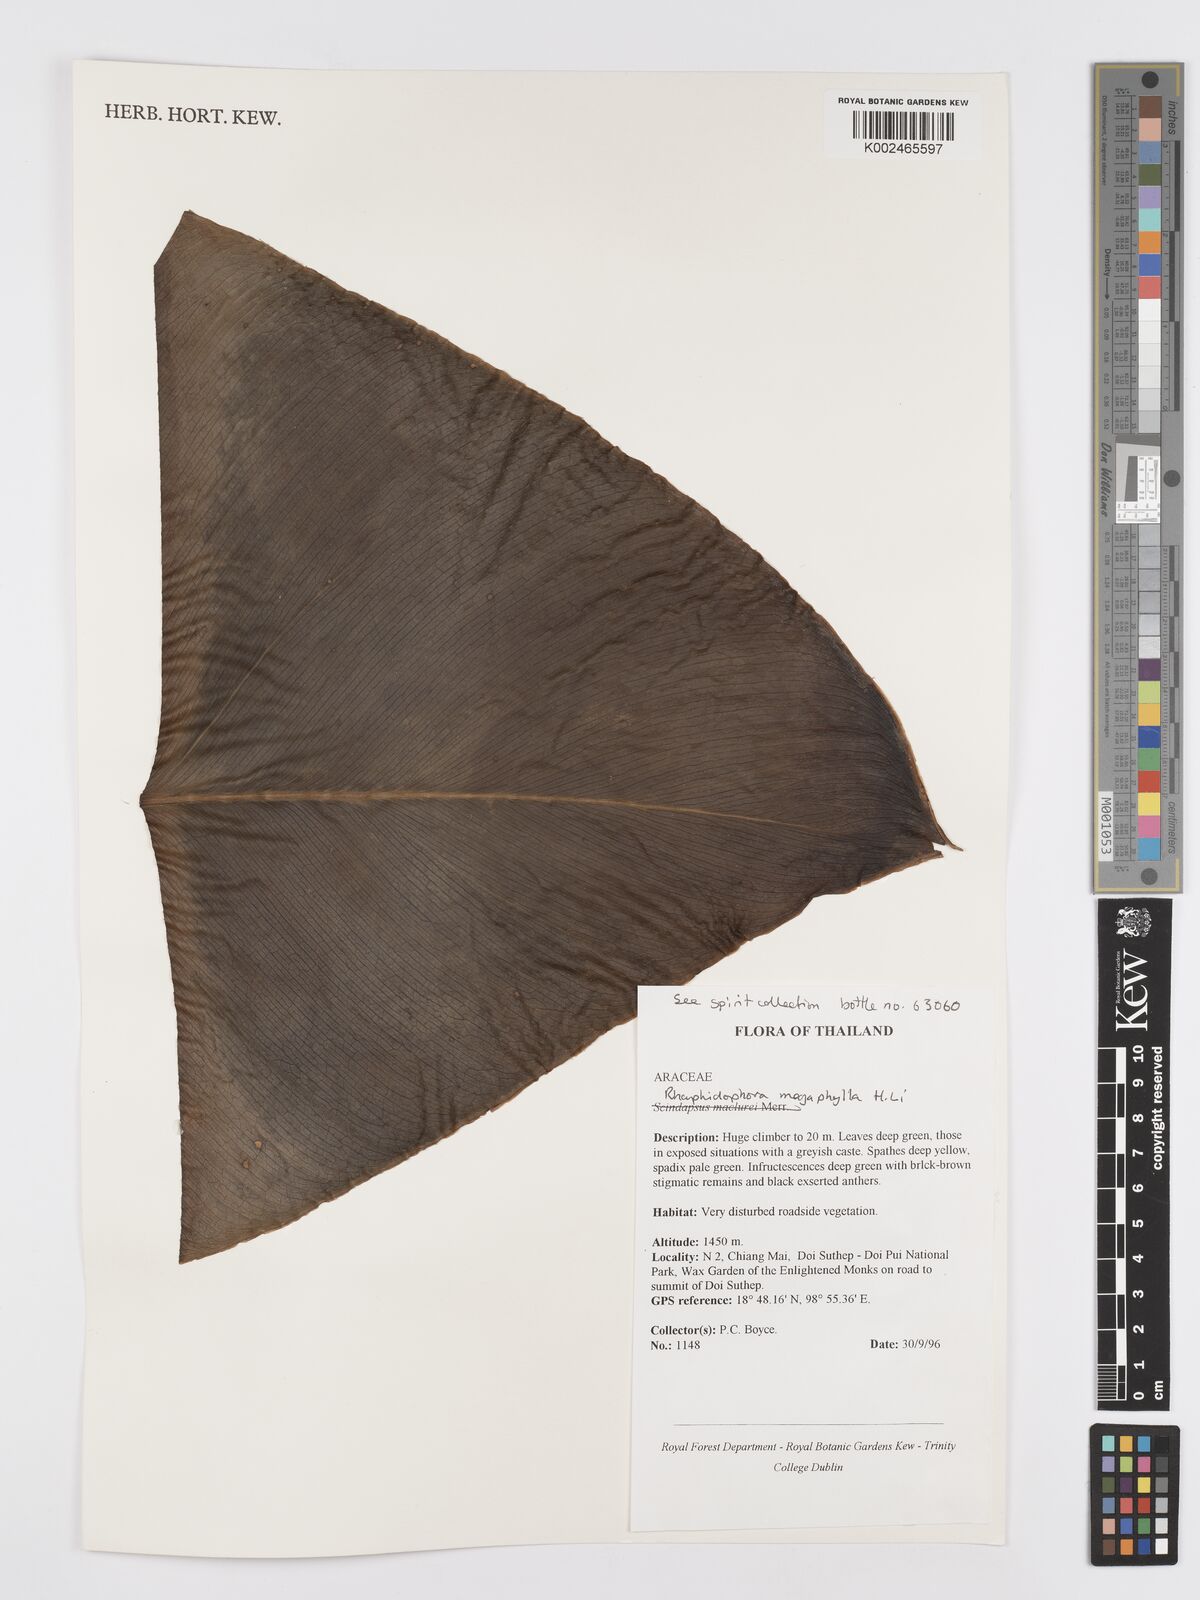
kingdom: Plantae
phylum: Tracheophyta
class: Liliopsida
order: Alismatales
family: Araceae
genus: Rhaphidophora
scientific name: Rhaphidophora megaphylla
